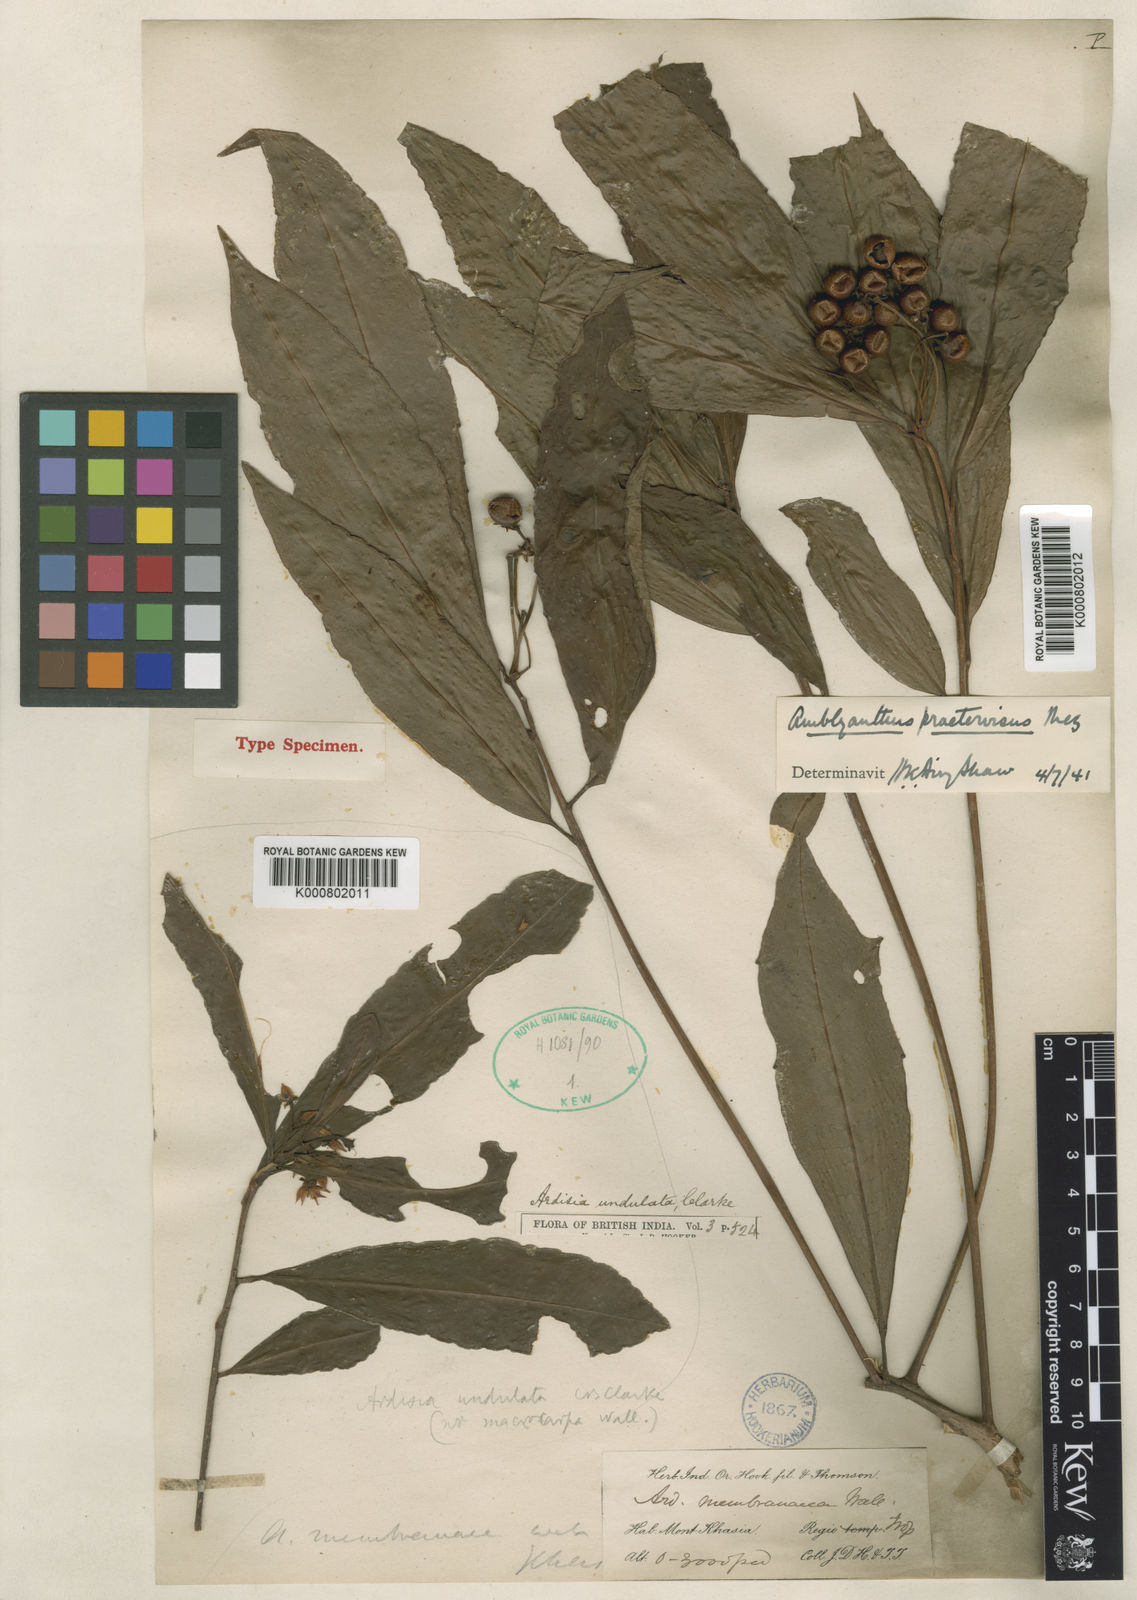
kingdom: Plantae
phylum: Tracheophyta
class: Magnoliopsida
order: Ericales
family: Primulaceae
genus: Amblyanthus
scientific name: Amblyanthus glandulosus
